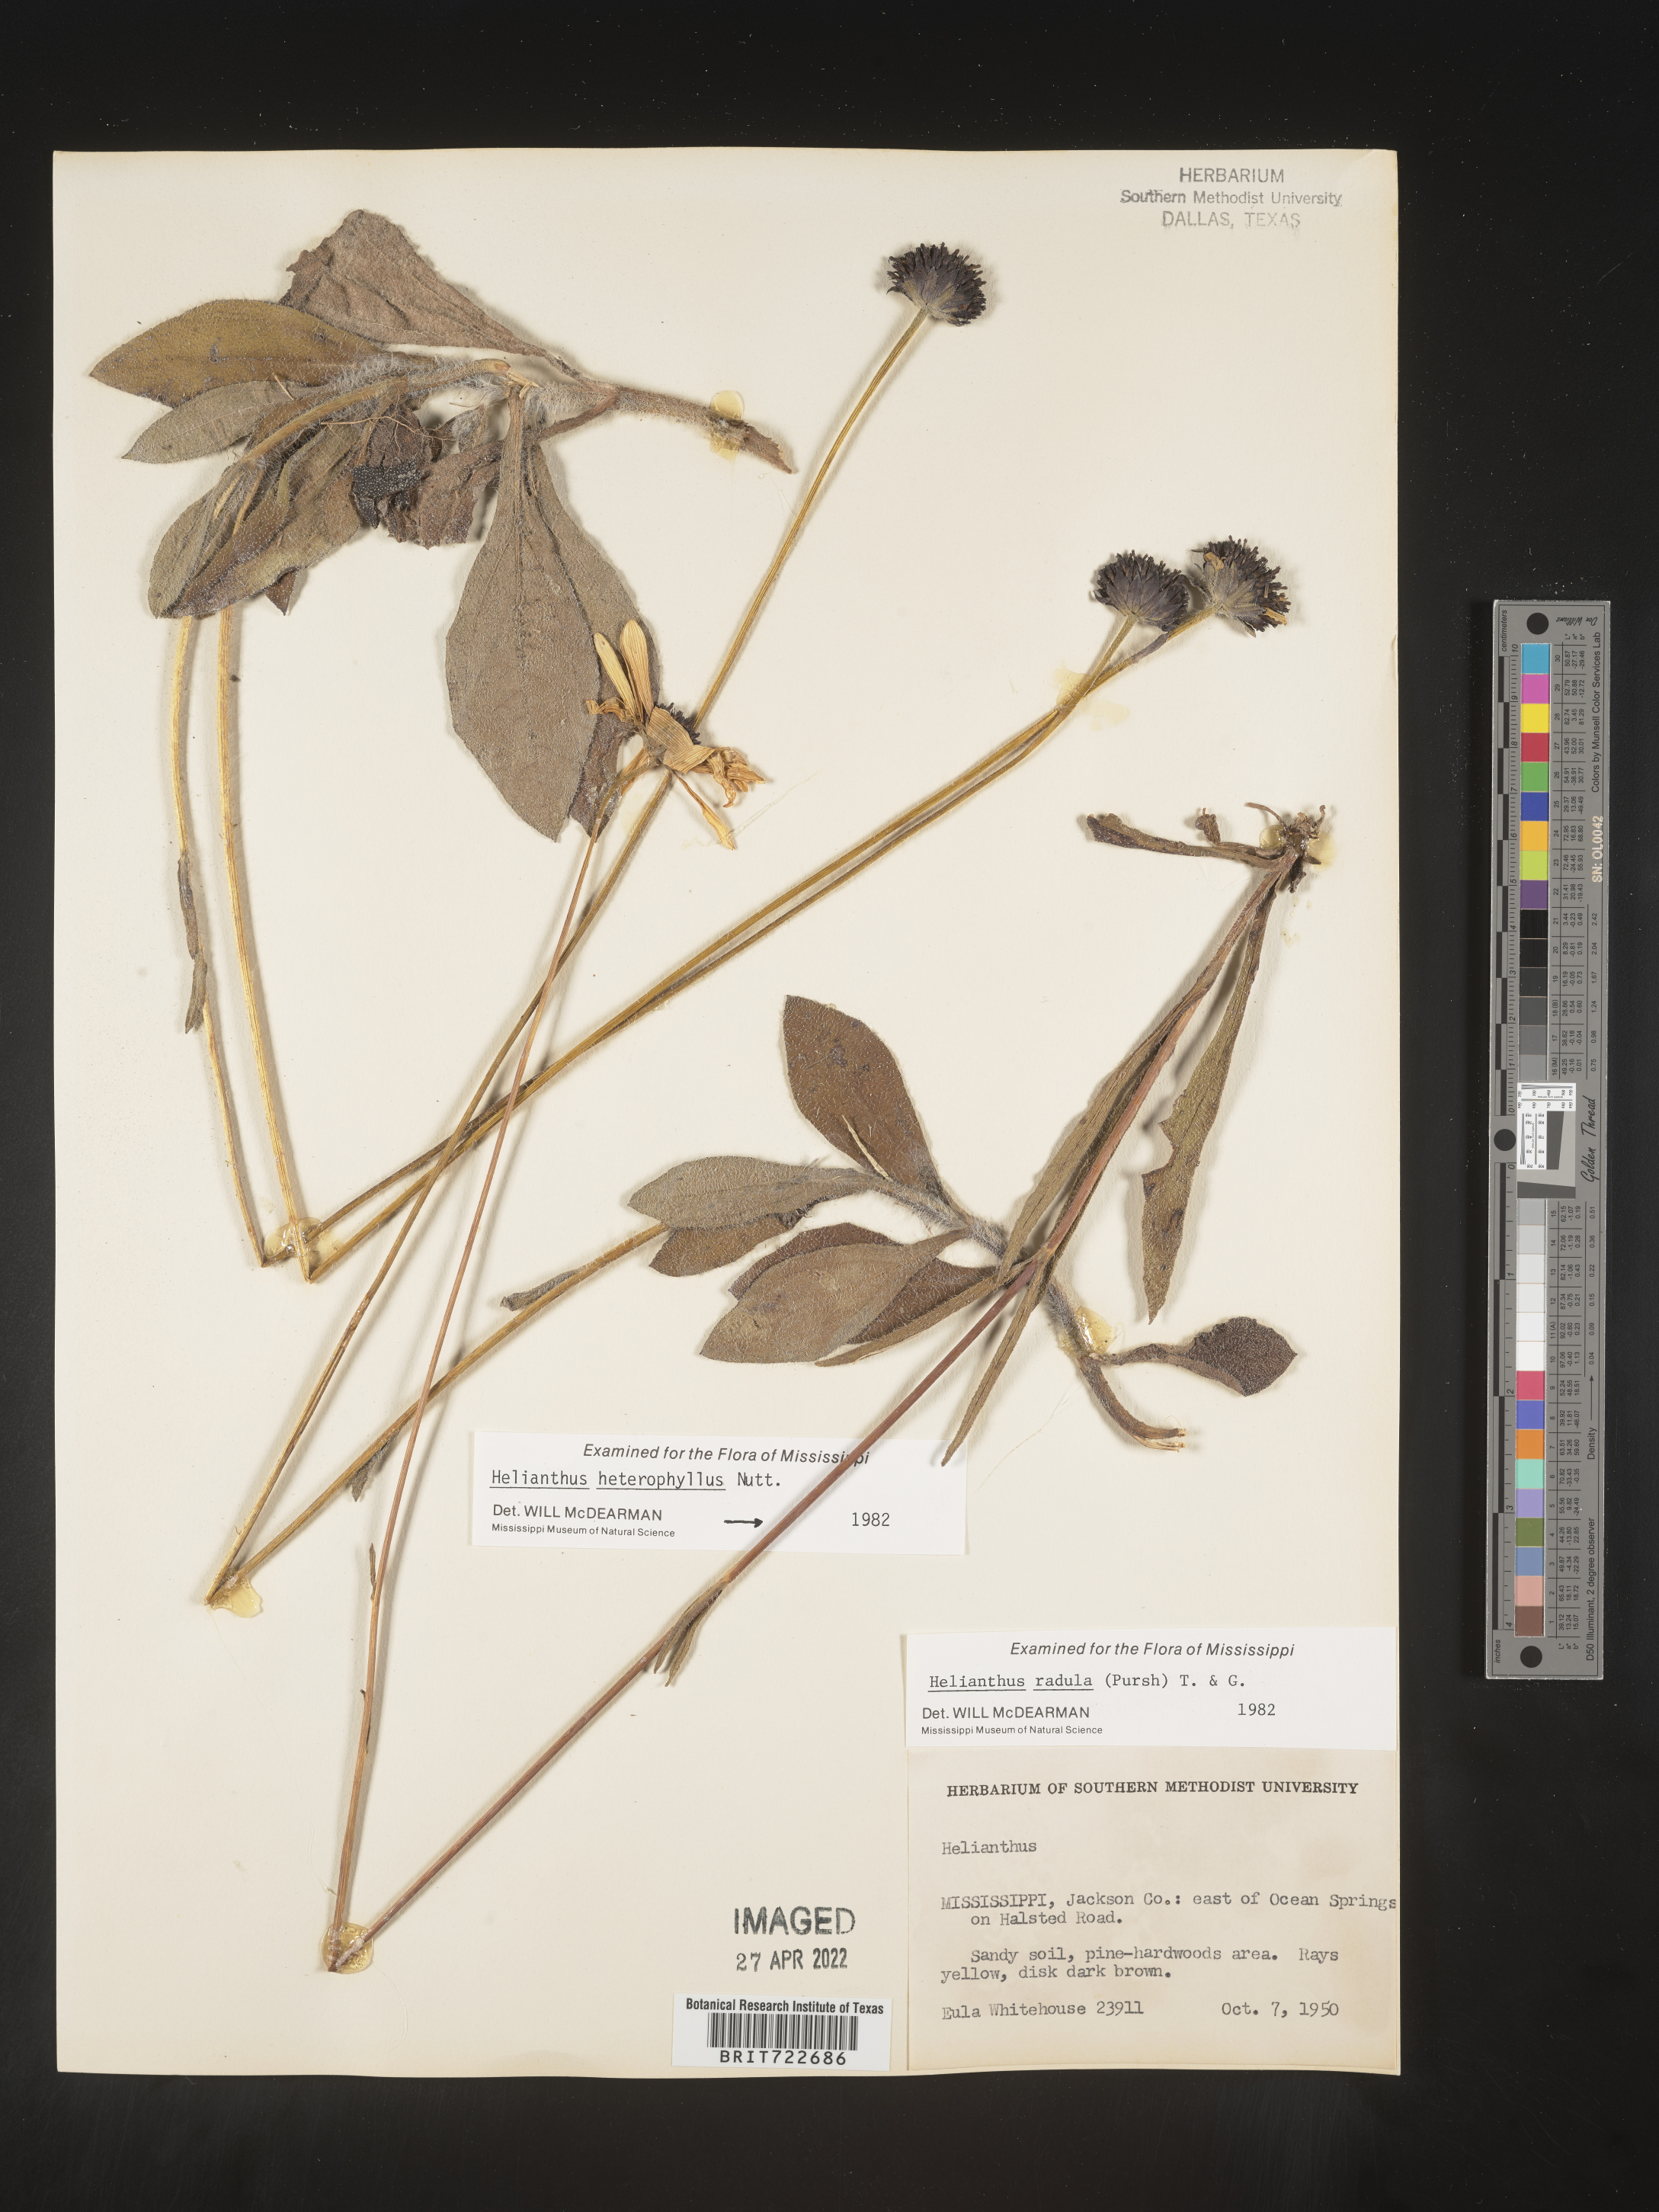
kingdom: Plantae
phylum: Tracheophyta
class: Magnoliopsida
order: Asterales
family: Asteraceae
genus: Helianthus
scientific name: Helianthus radula
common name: Pineland sunflower
